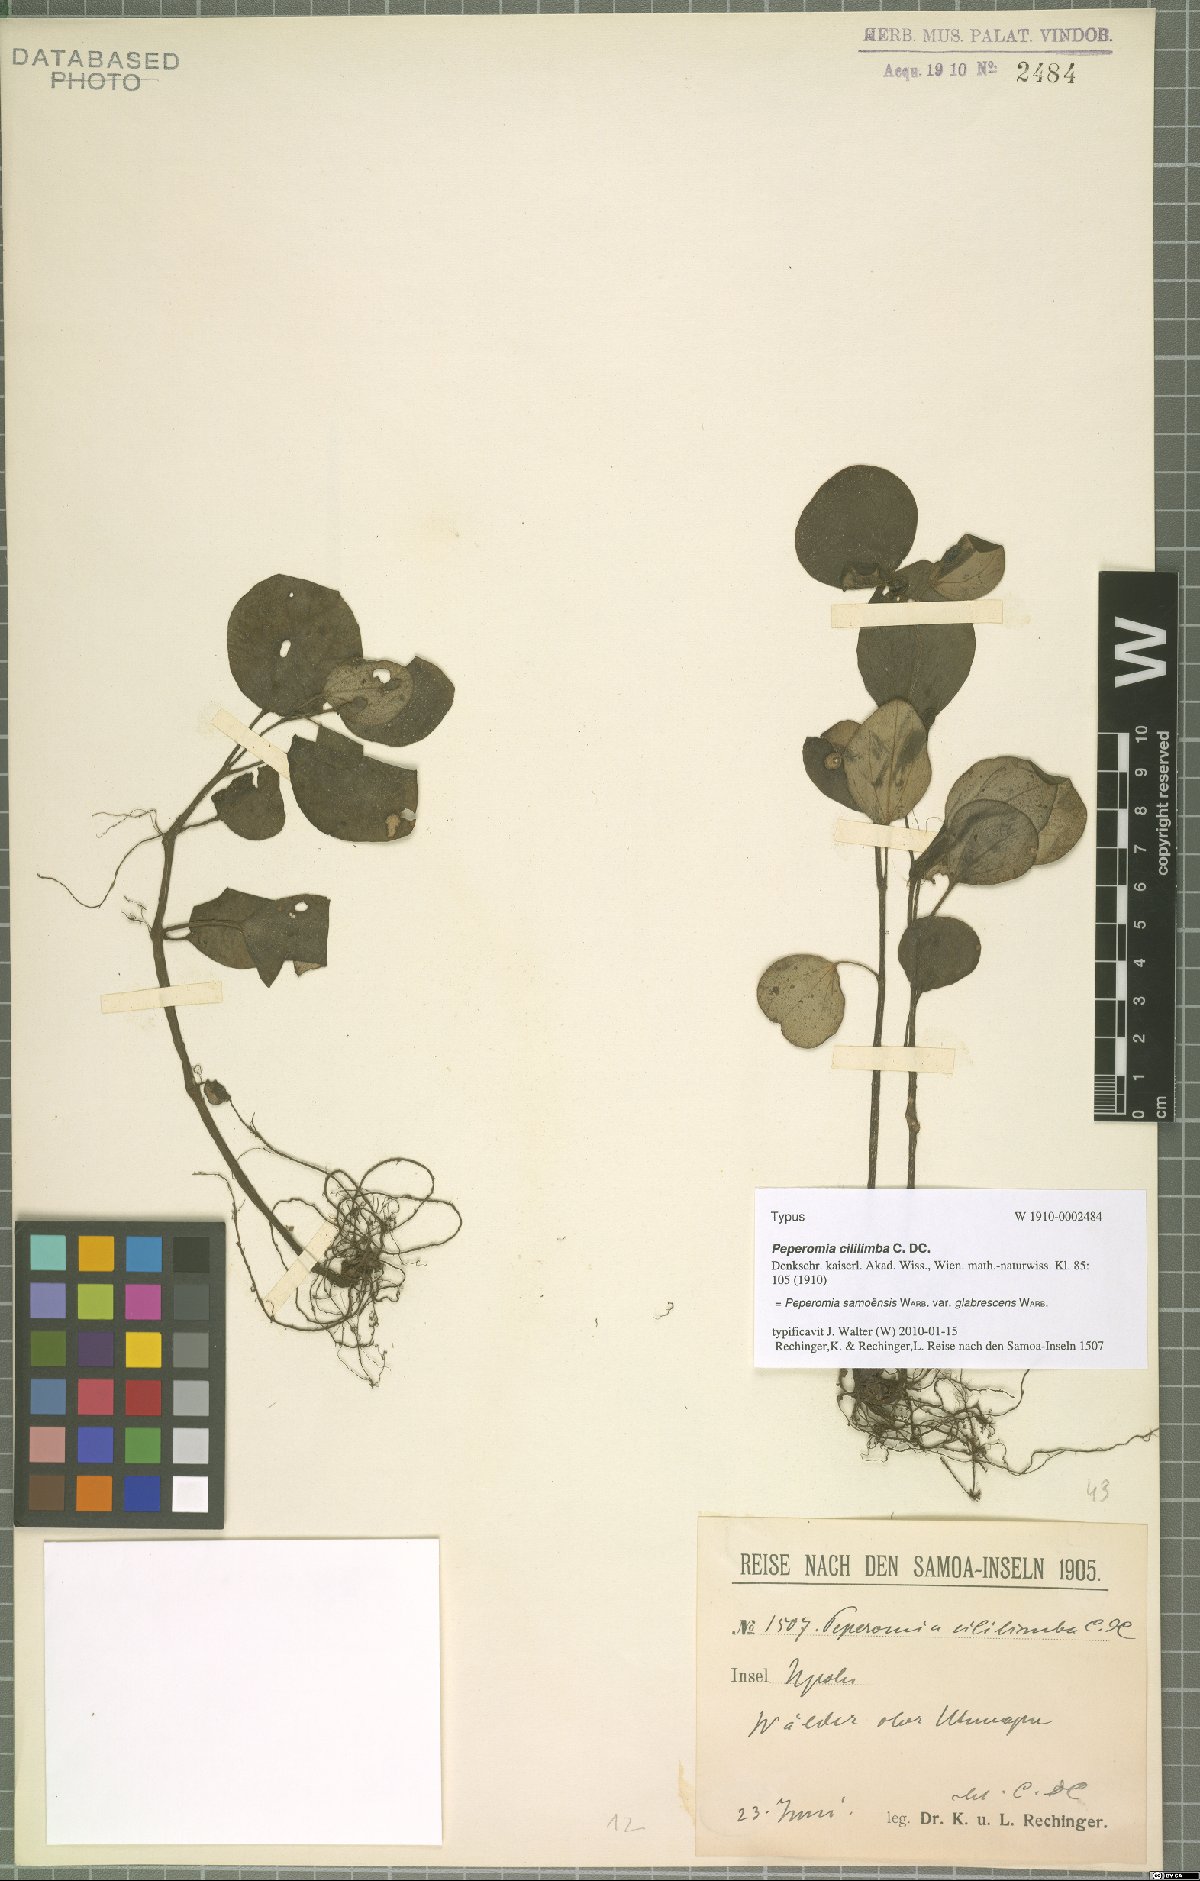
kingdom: Plantae
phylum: Tracheophyta
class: Magnoliopsida
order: Piperales
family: Piperaceae
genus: Peperomia
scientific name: Peperomia samoensis
